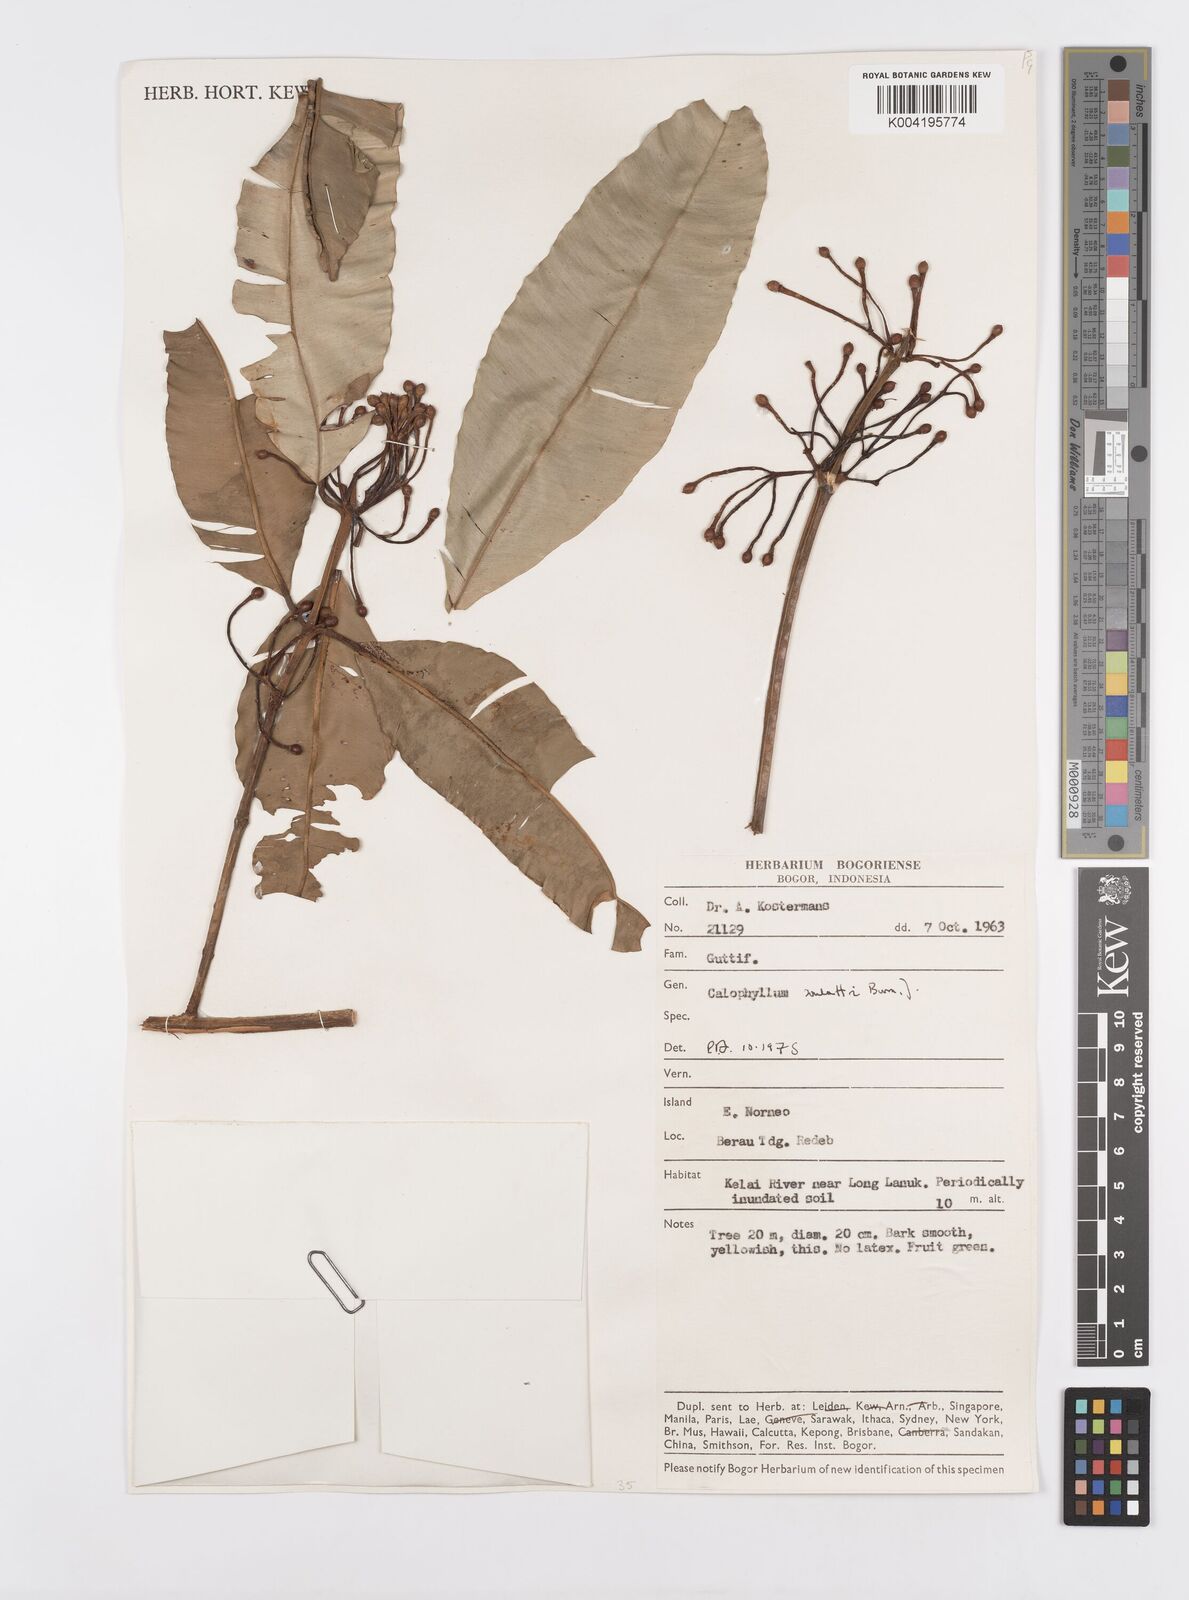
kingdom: Plantae
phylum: Tracheophyta
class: Magnoliopsida
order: Malpighiales
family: Calophyllaceae
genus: Calophyllum
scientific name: Calophyllum soulattri
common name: Bitangoor boonot
